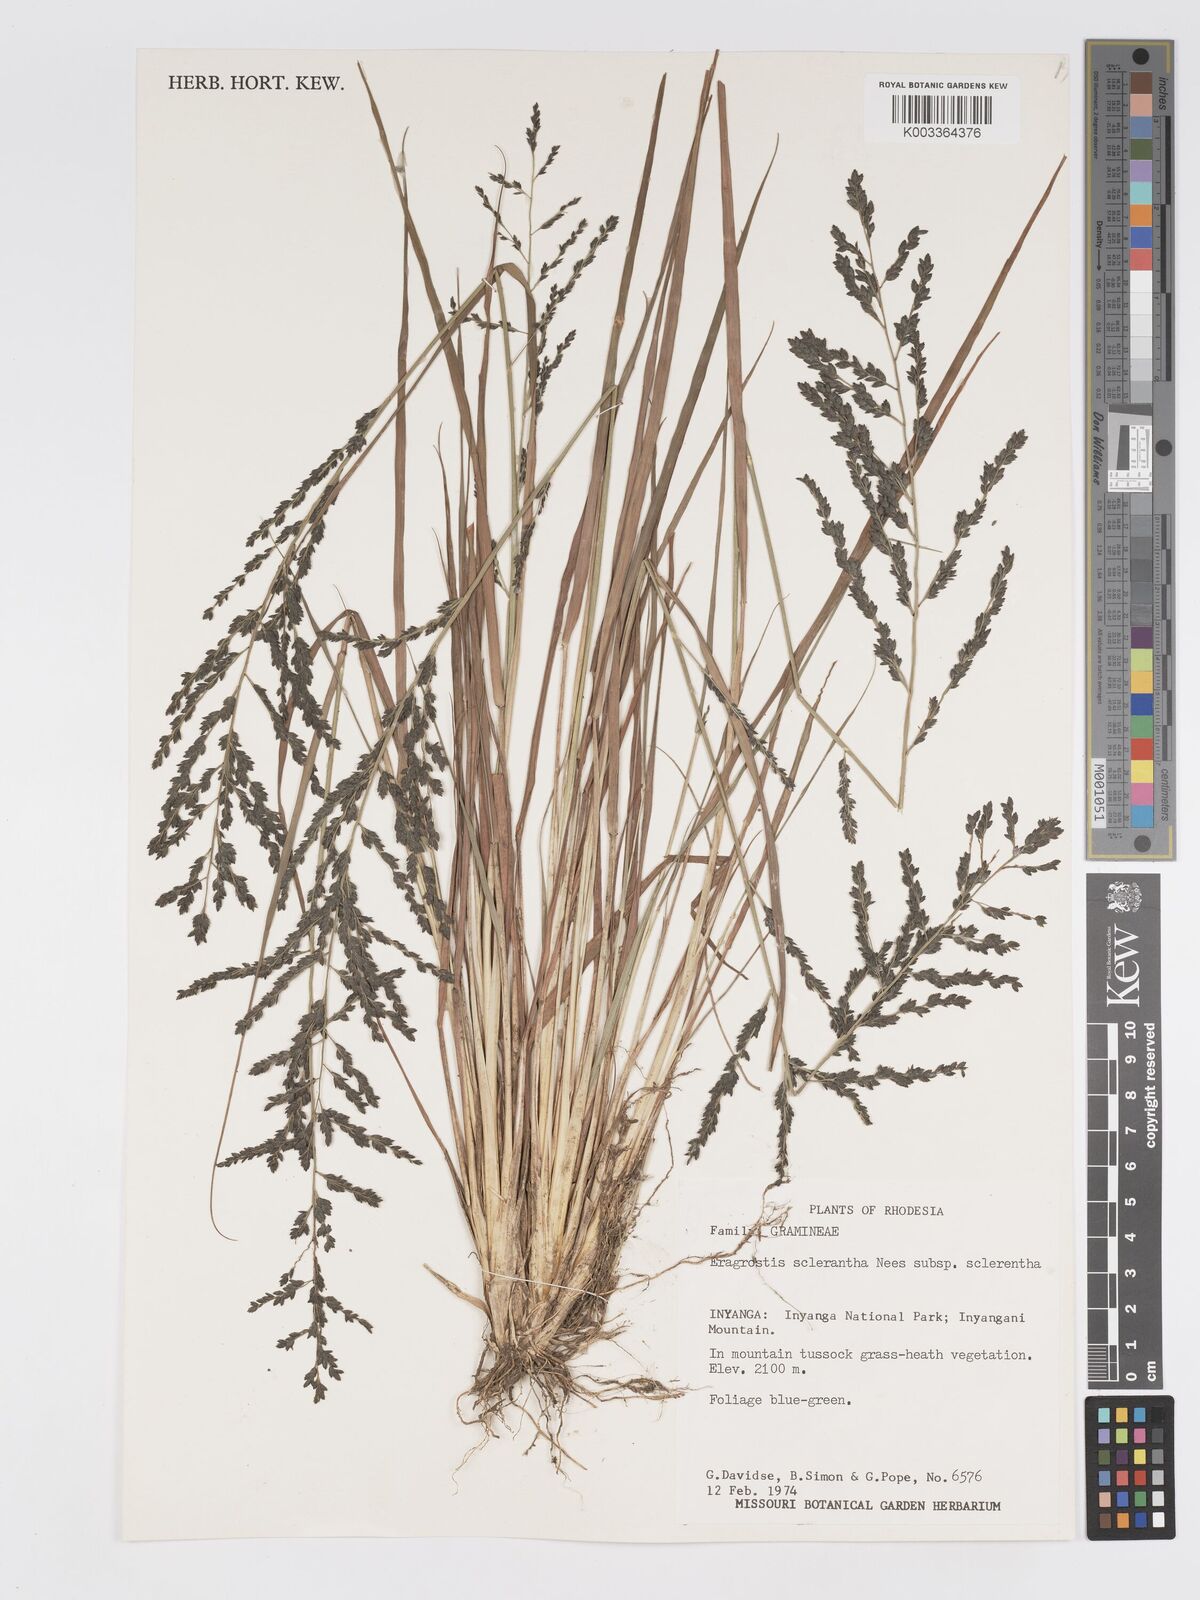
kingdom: Plantae
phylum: Tracheophyta
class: Liliopsida
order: Poales
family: Poaceae
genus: Eragrostis
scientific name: Eragrostis racemosa
